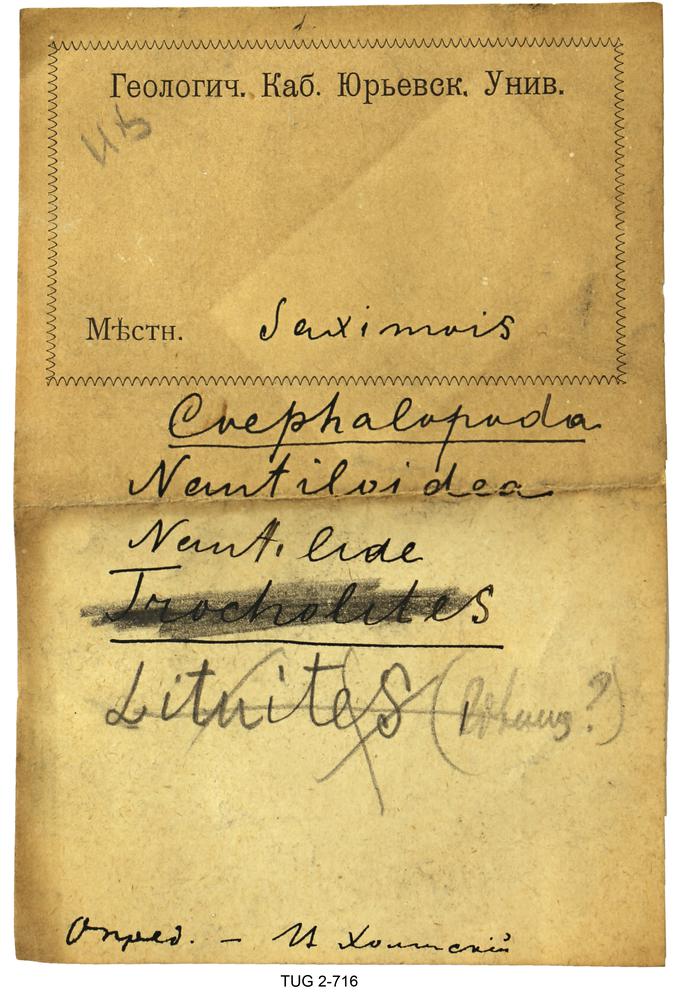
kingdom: Animalia
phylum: Mollusca
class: Cephalopoda
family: Trocholitidae
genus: Discoceras
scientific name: Discoceras Rectanguloceras balaschovi
